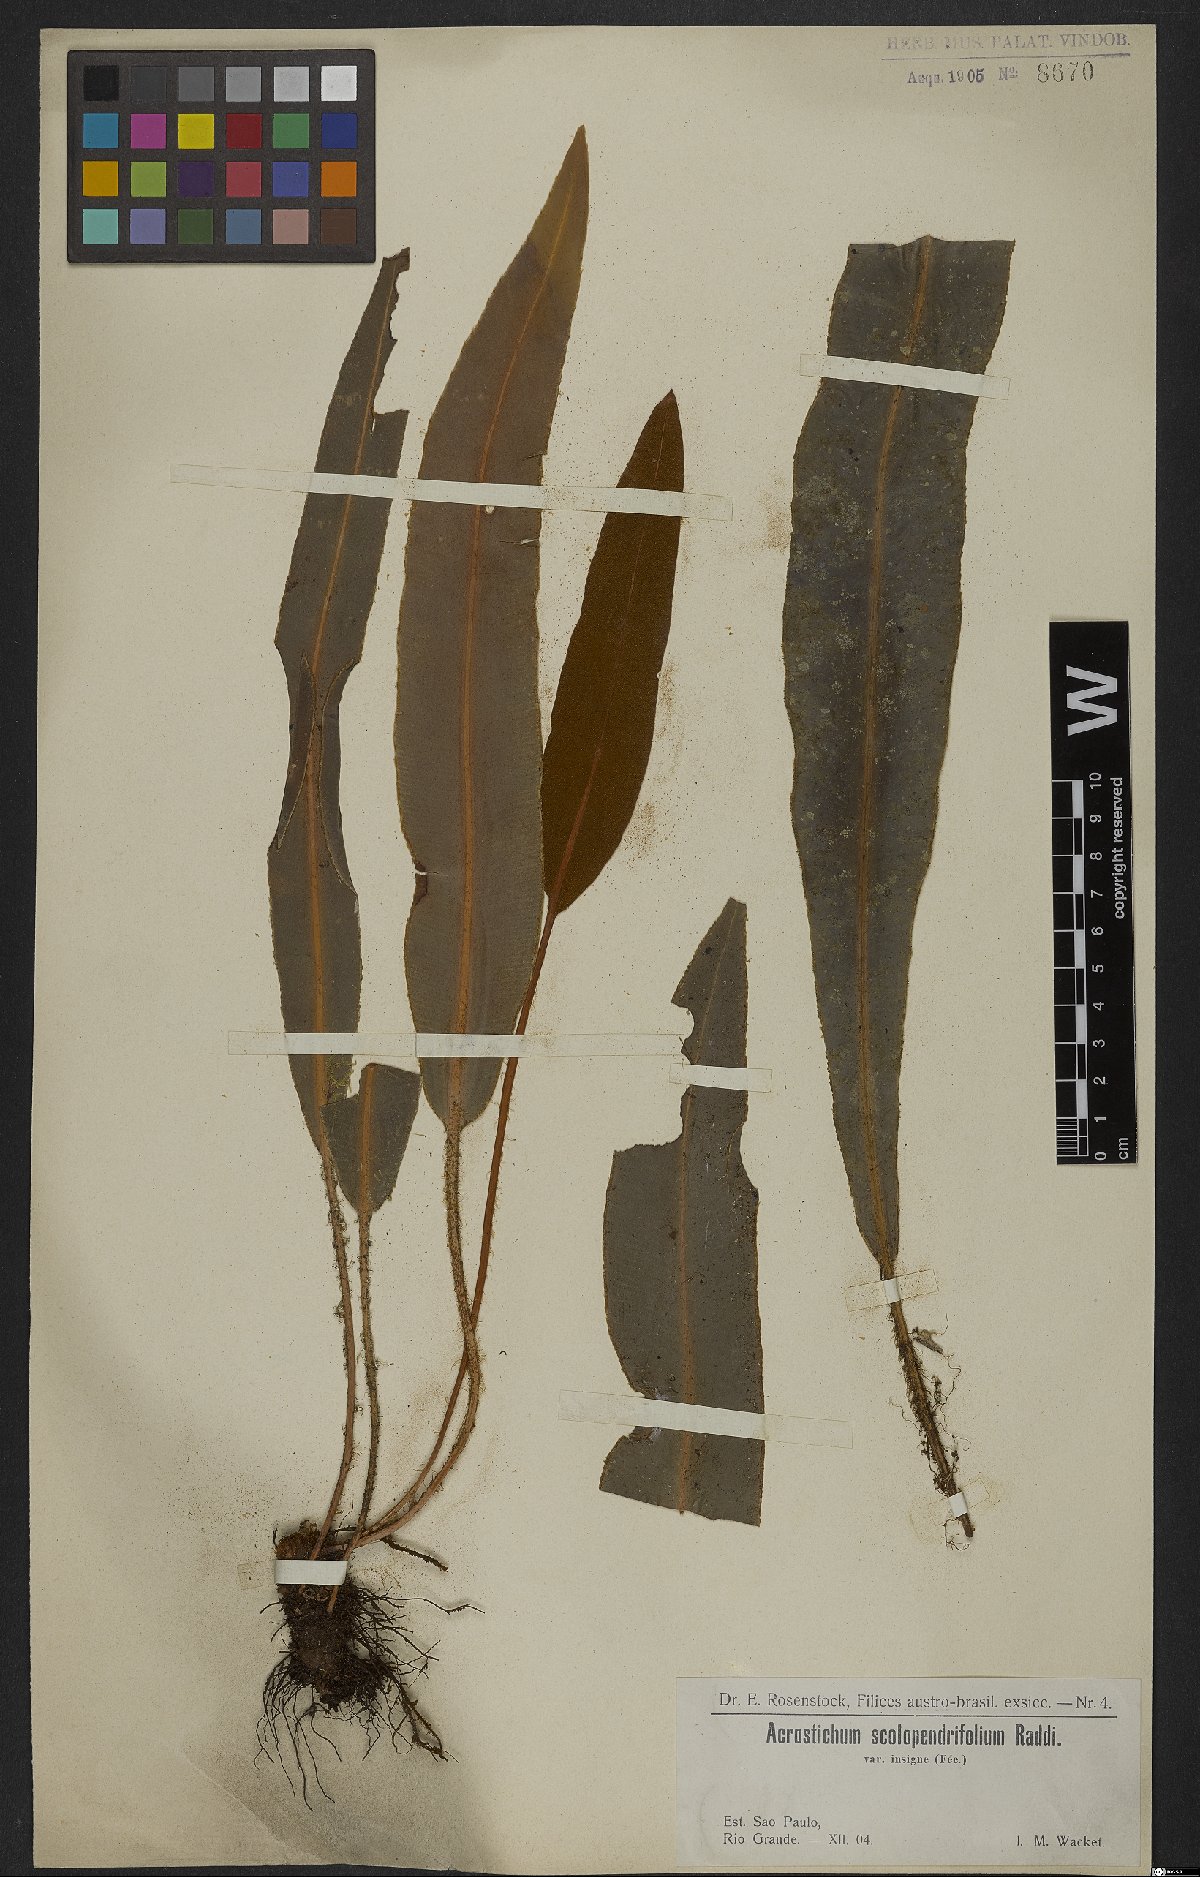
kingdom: Plantae
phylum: Tracheophyta
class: Polypodiopsida
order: Polypodiales
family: Dryopteridaceae
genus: Elaphoglossum
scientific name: Elaphoglossum scolopendrifolium
